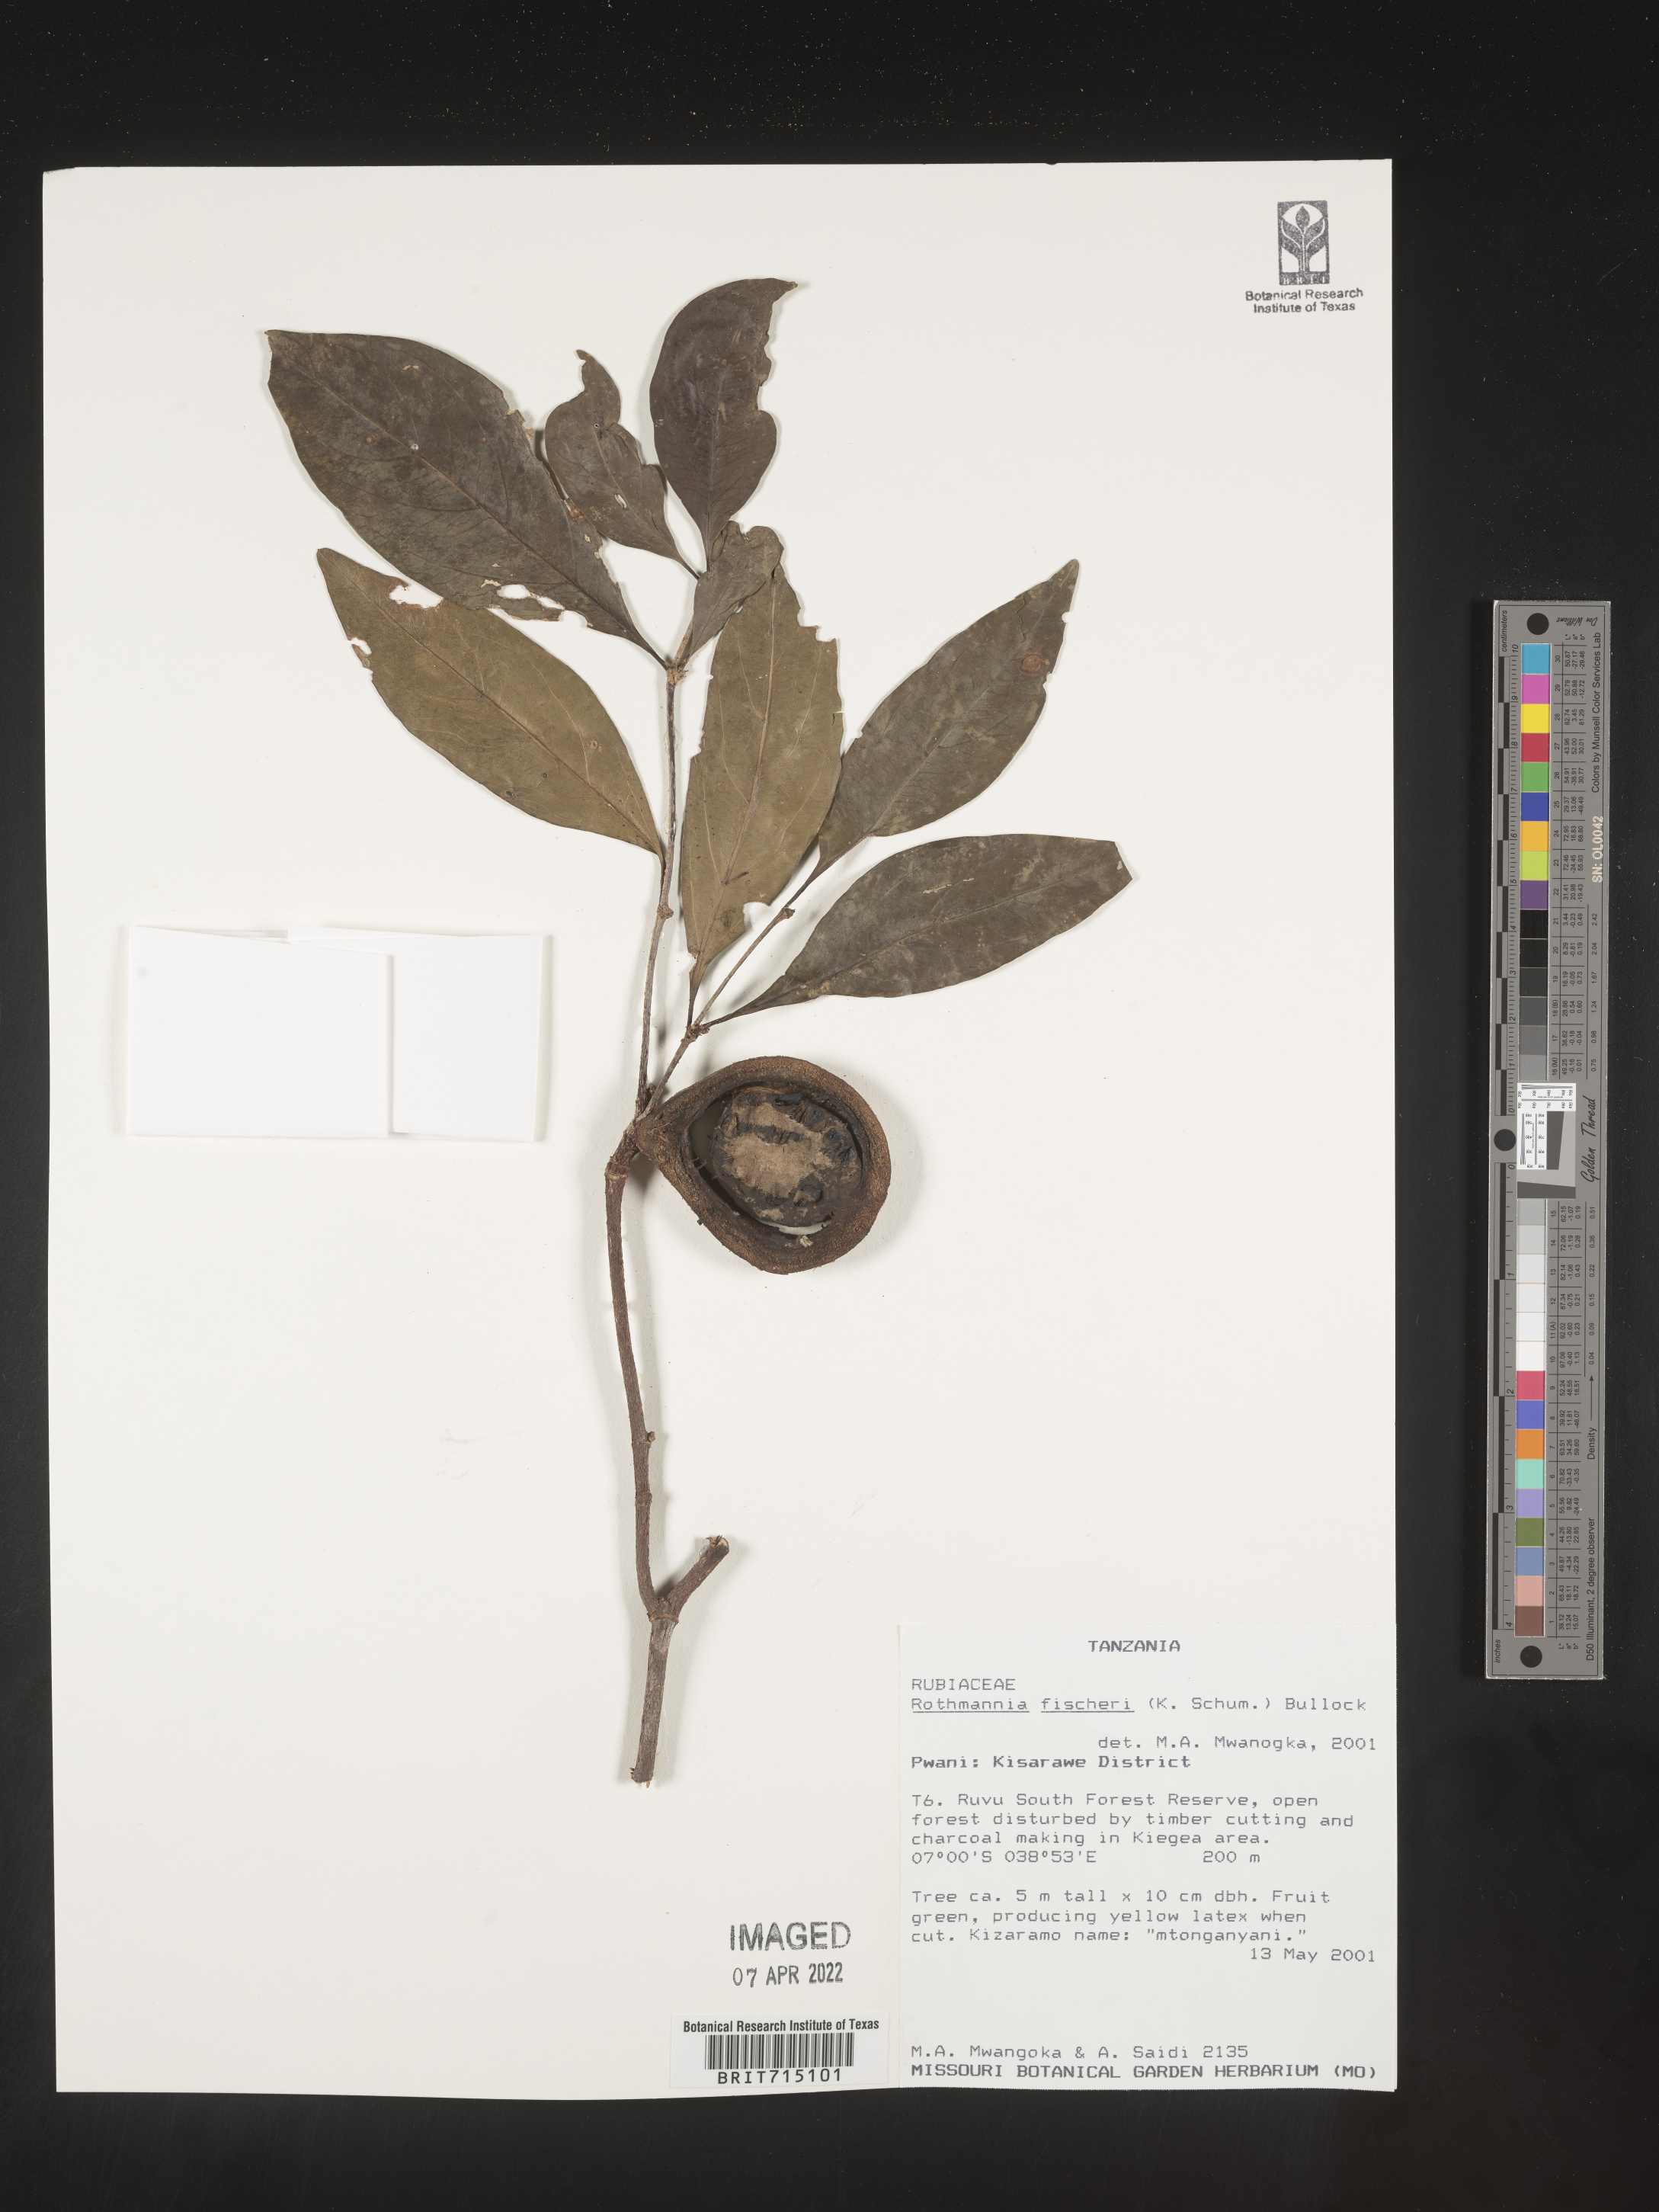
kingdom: Plantae
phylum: Tracheophyta
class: Magnoliopsida
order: Gentianales
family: Rubiaceae
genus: Rothmannia
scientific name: Rothmannia
